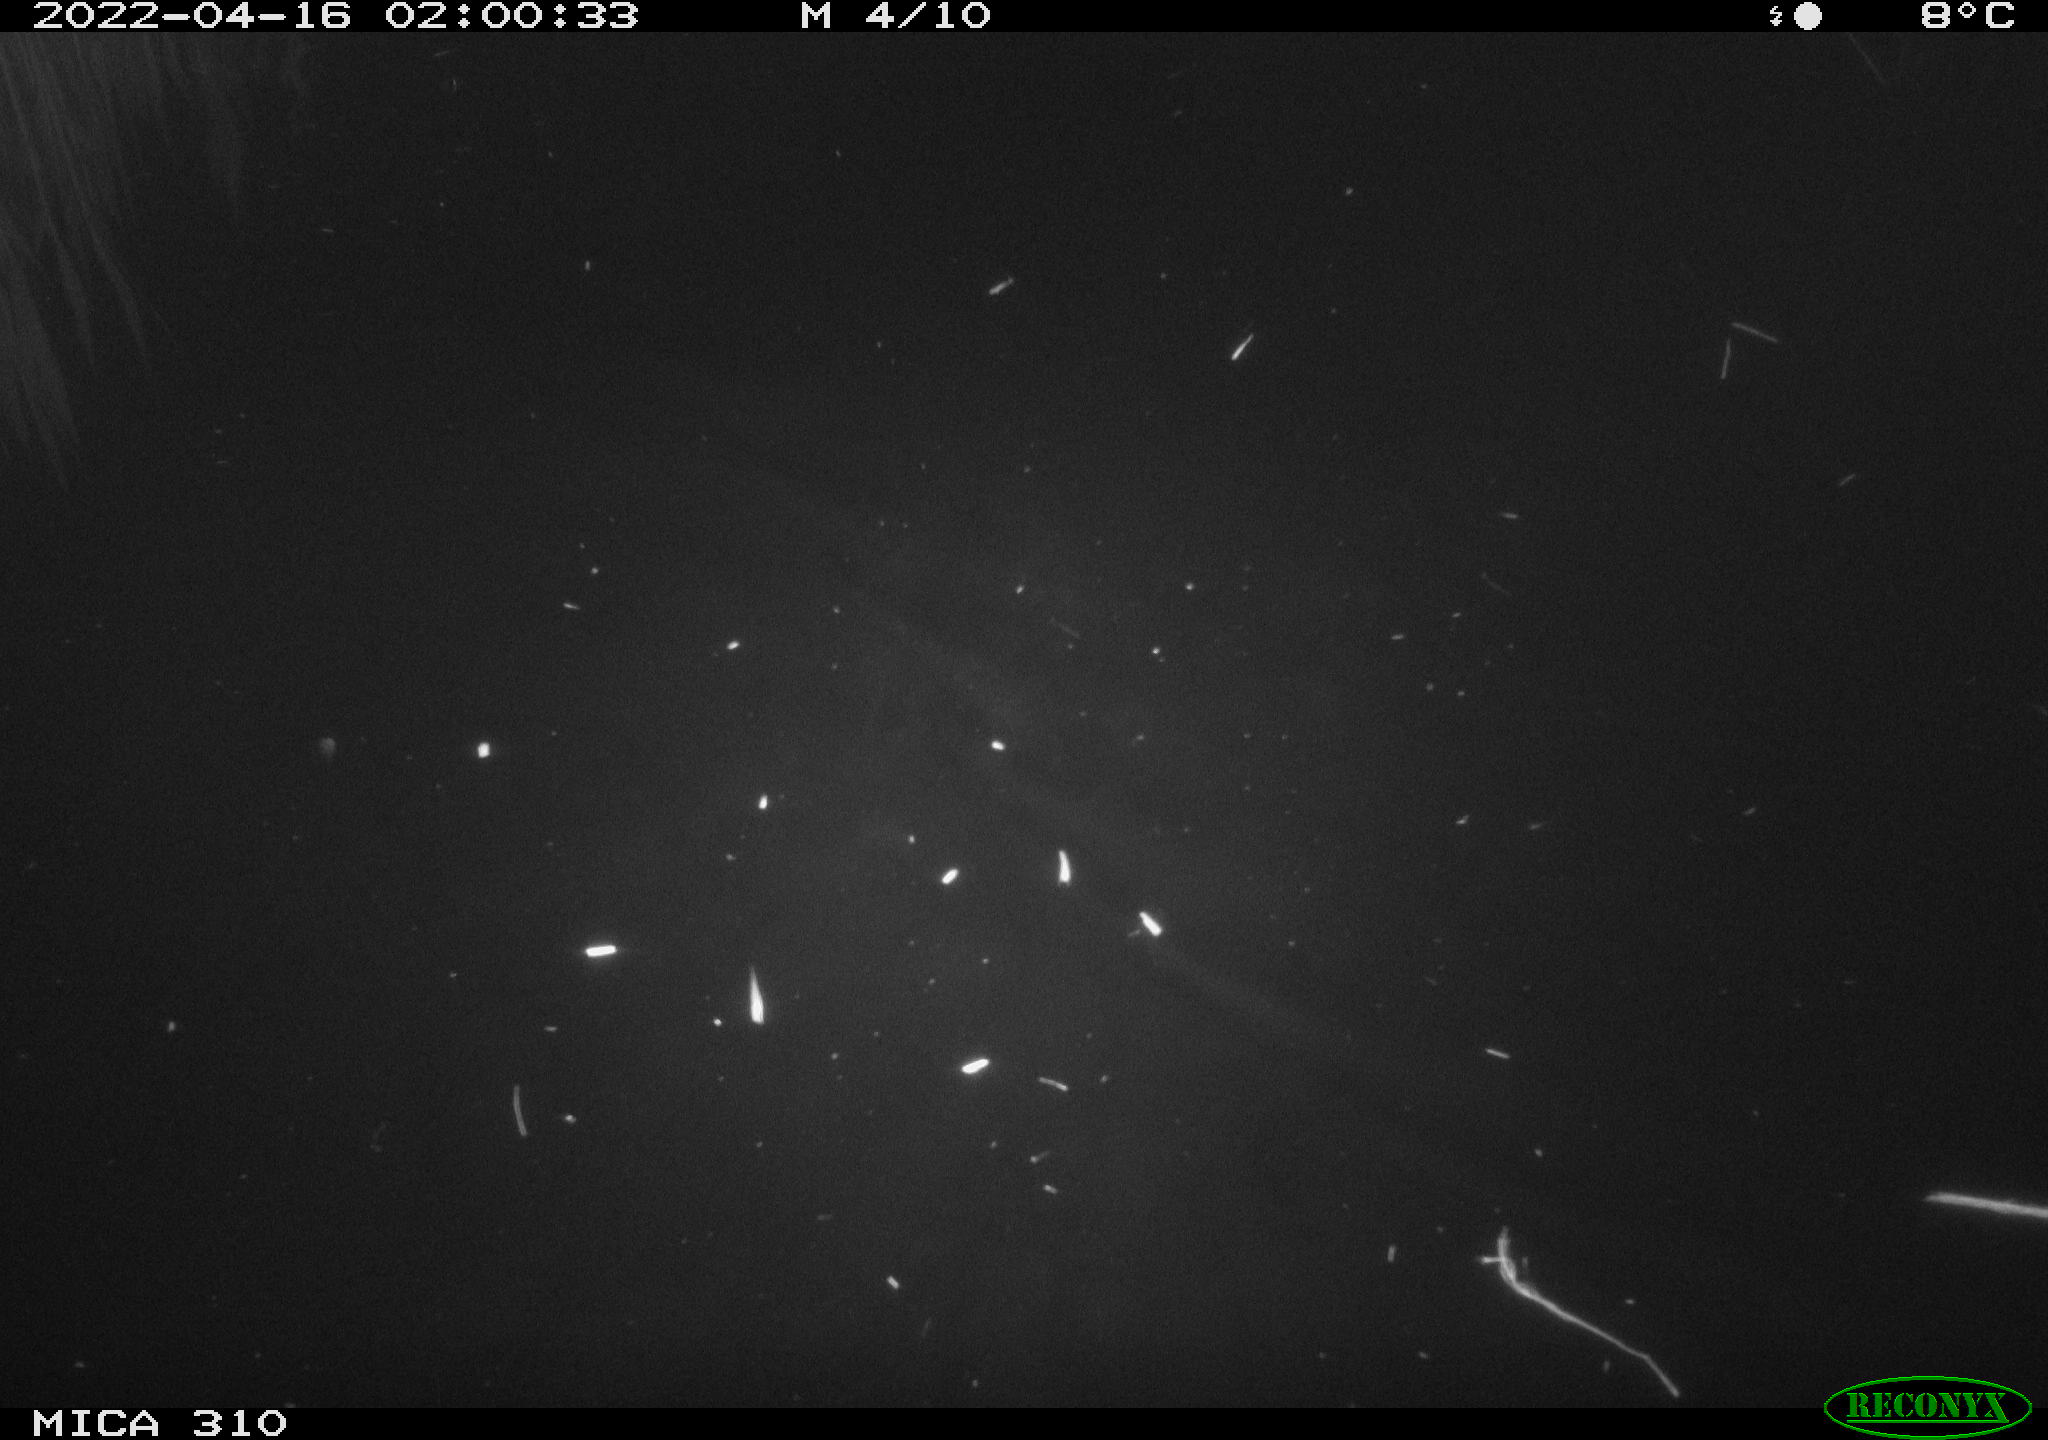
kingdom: Animalia
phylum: Chordata
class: Aves
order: Anseriformes
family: Anatidae
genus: Anas
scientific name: Anas platyrhynchos
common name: Mallard
